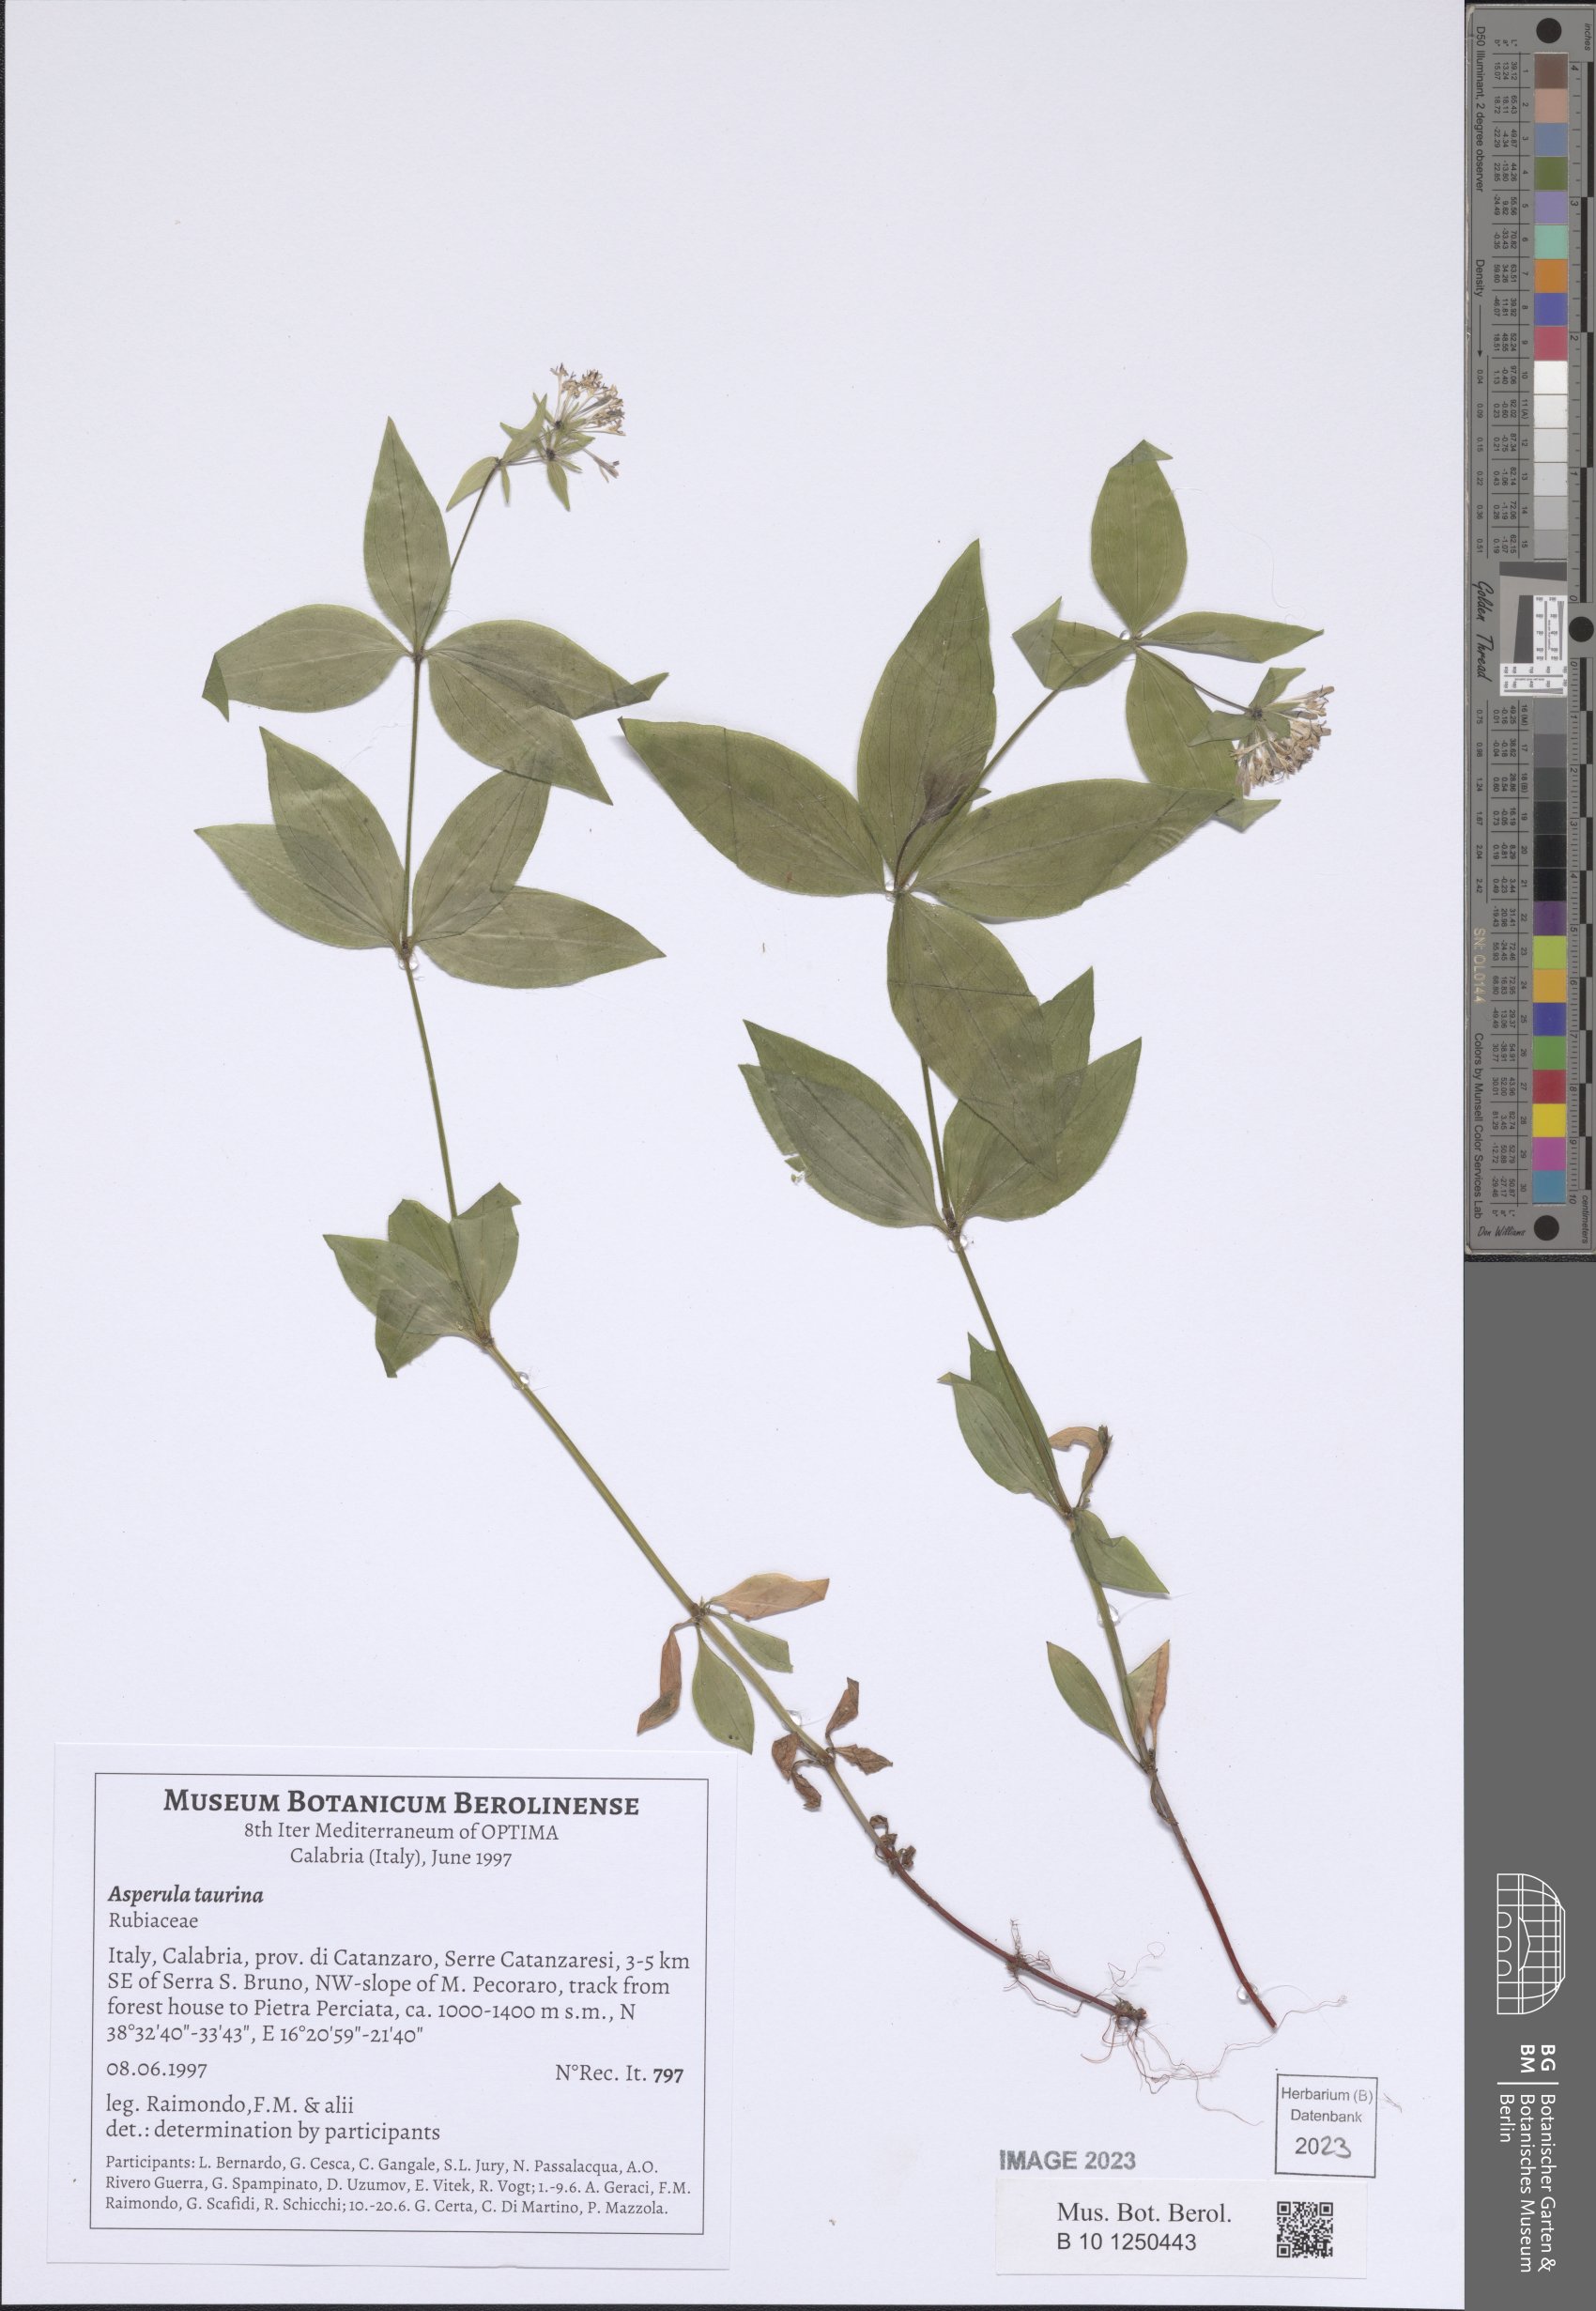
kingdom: Plantae
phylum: Tracheophyta
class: Magnoliopsida
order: Gentianales
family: Rubiaceae
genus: Asperula
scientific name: Asperula taurina
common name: Pink woodruff
